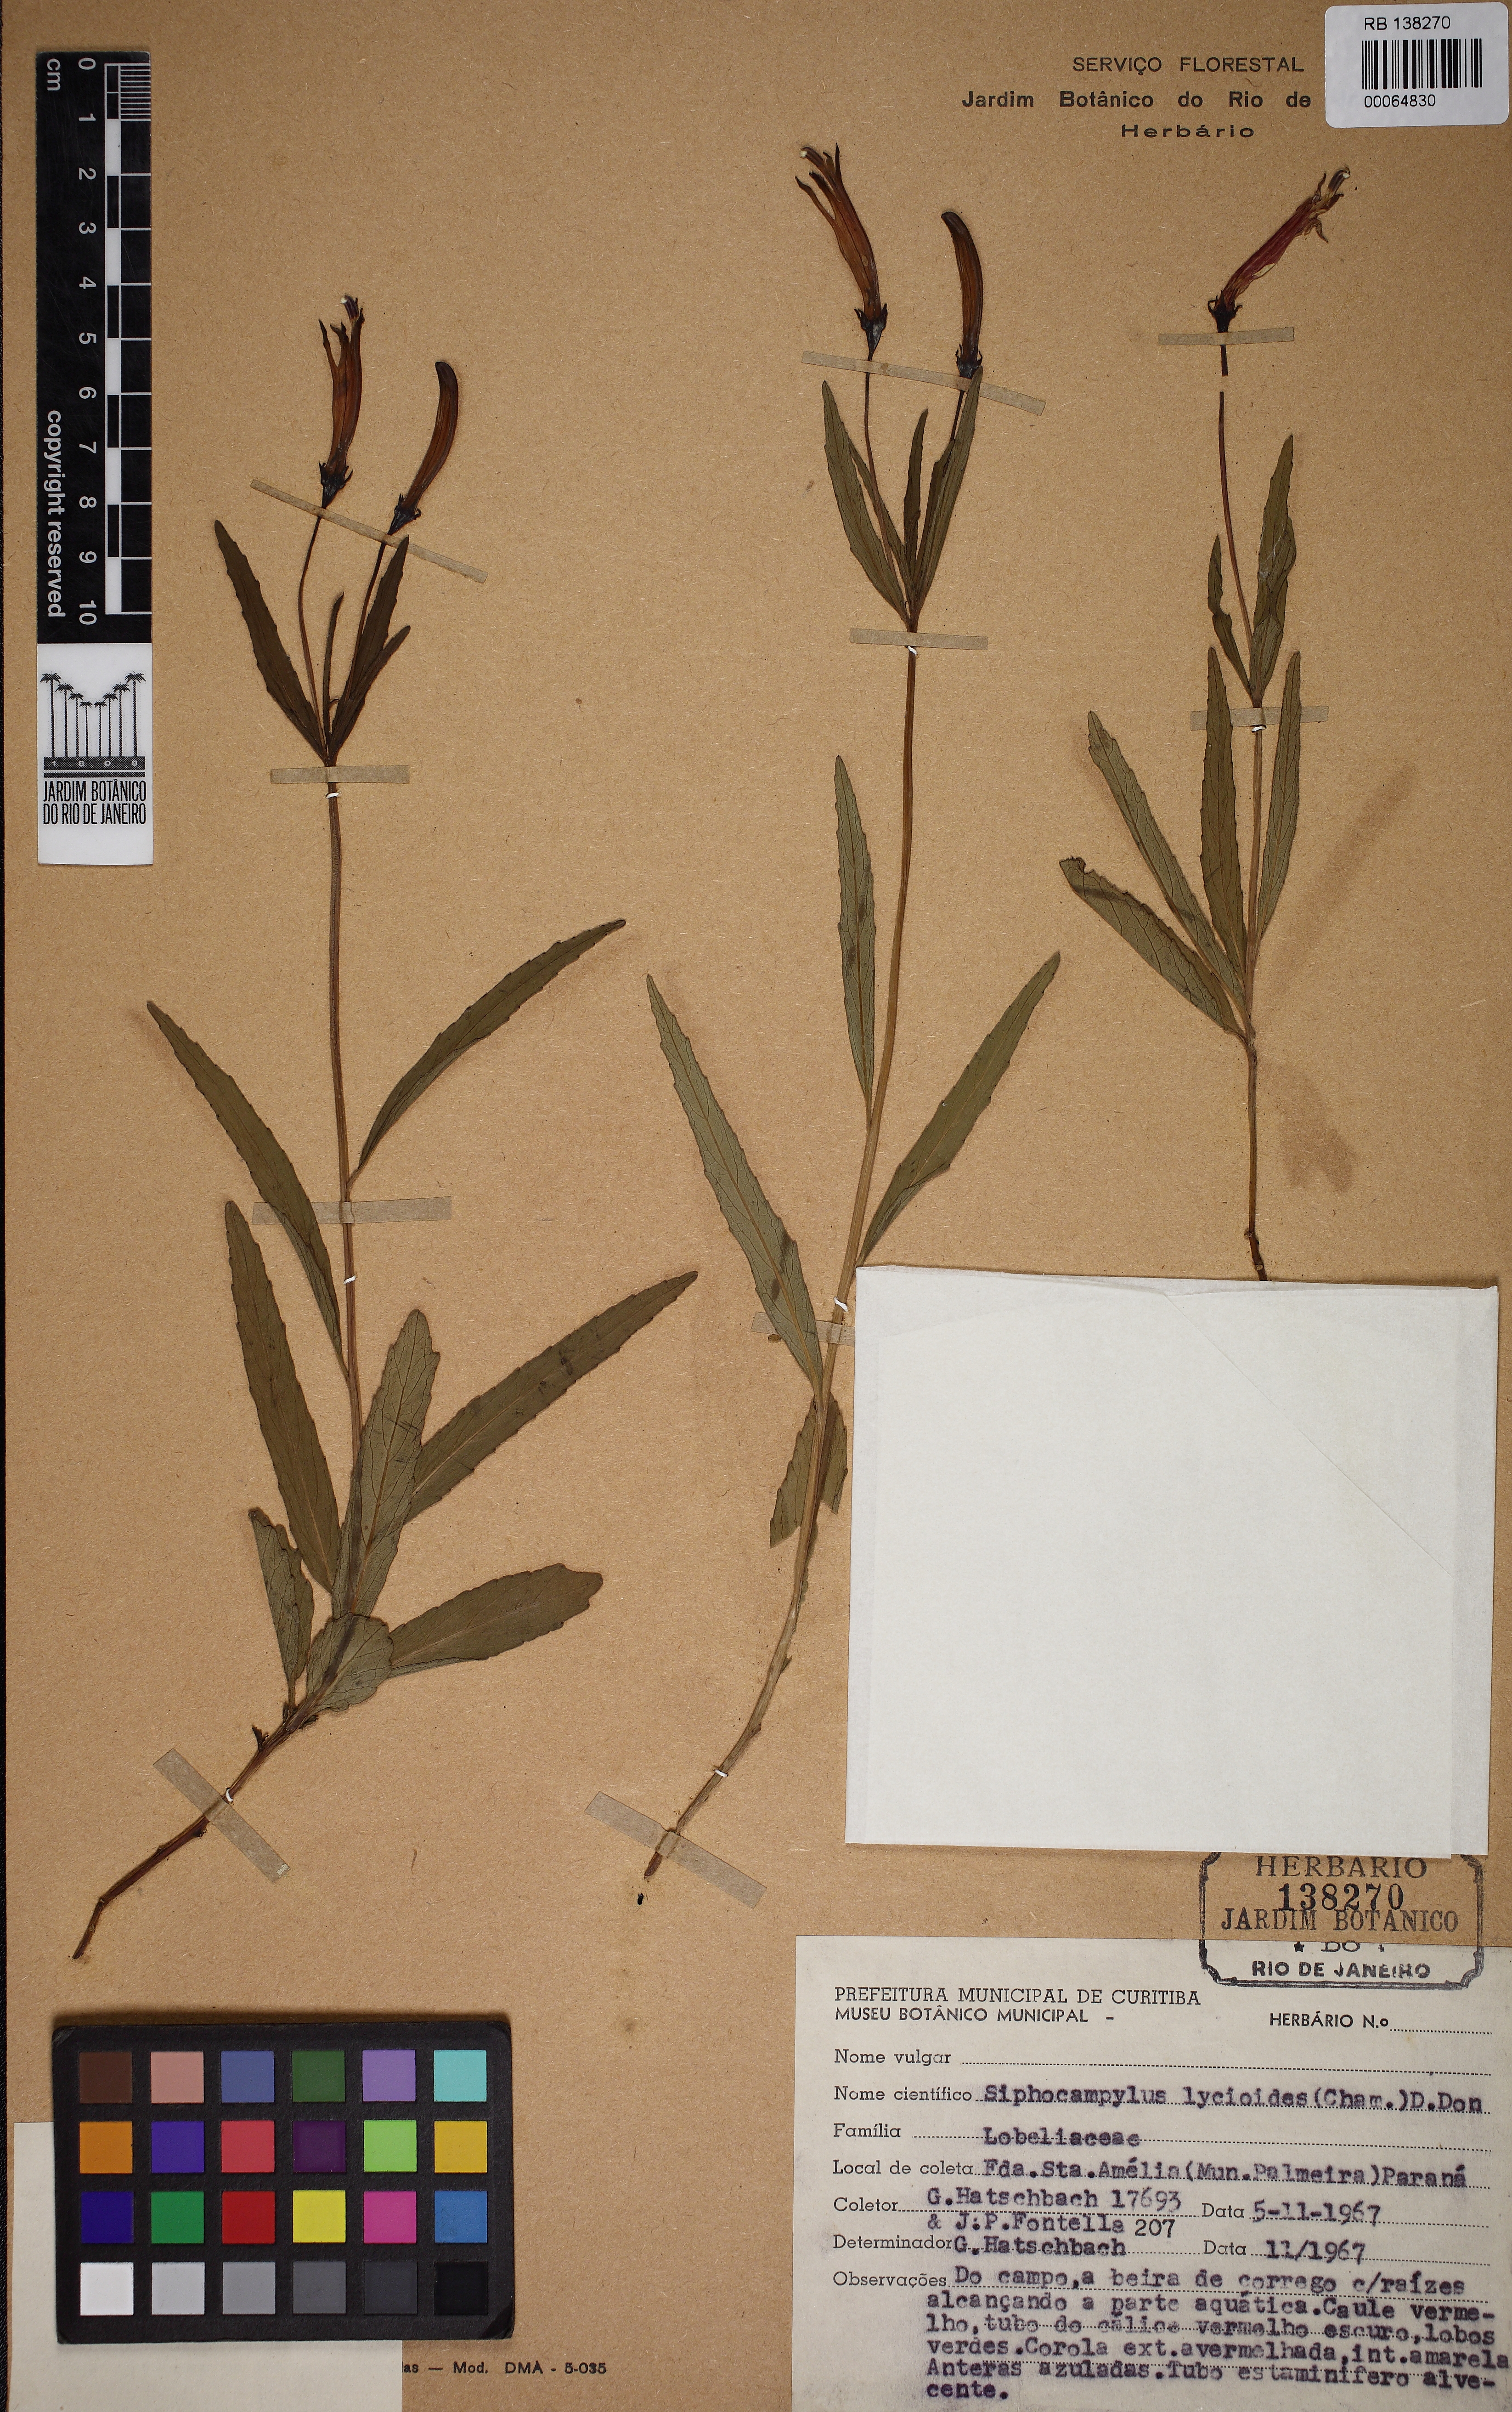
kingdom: Plantae
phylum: Tracheophyta
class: Magnoliopsida
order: Asterales
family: Campanulaceae
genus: Siphocampylus
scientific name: Siphocampylus lycioides
